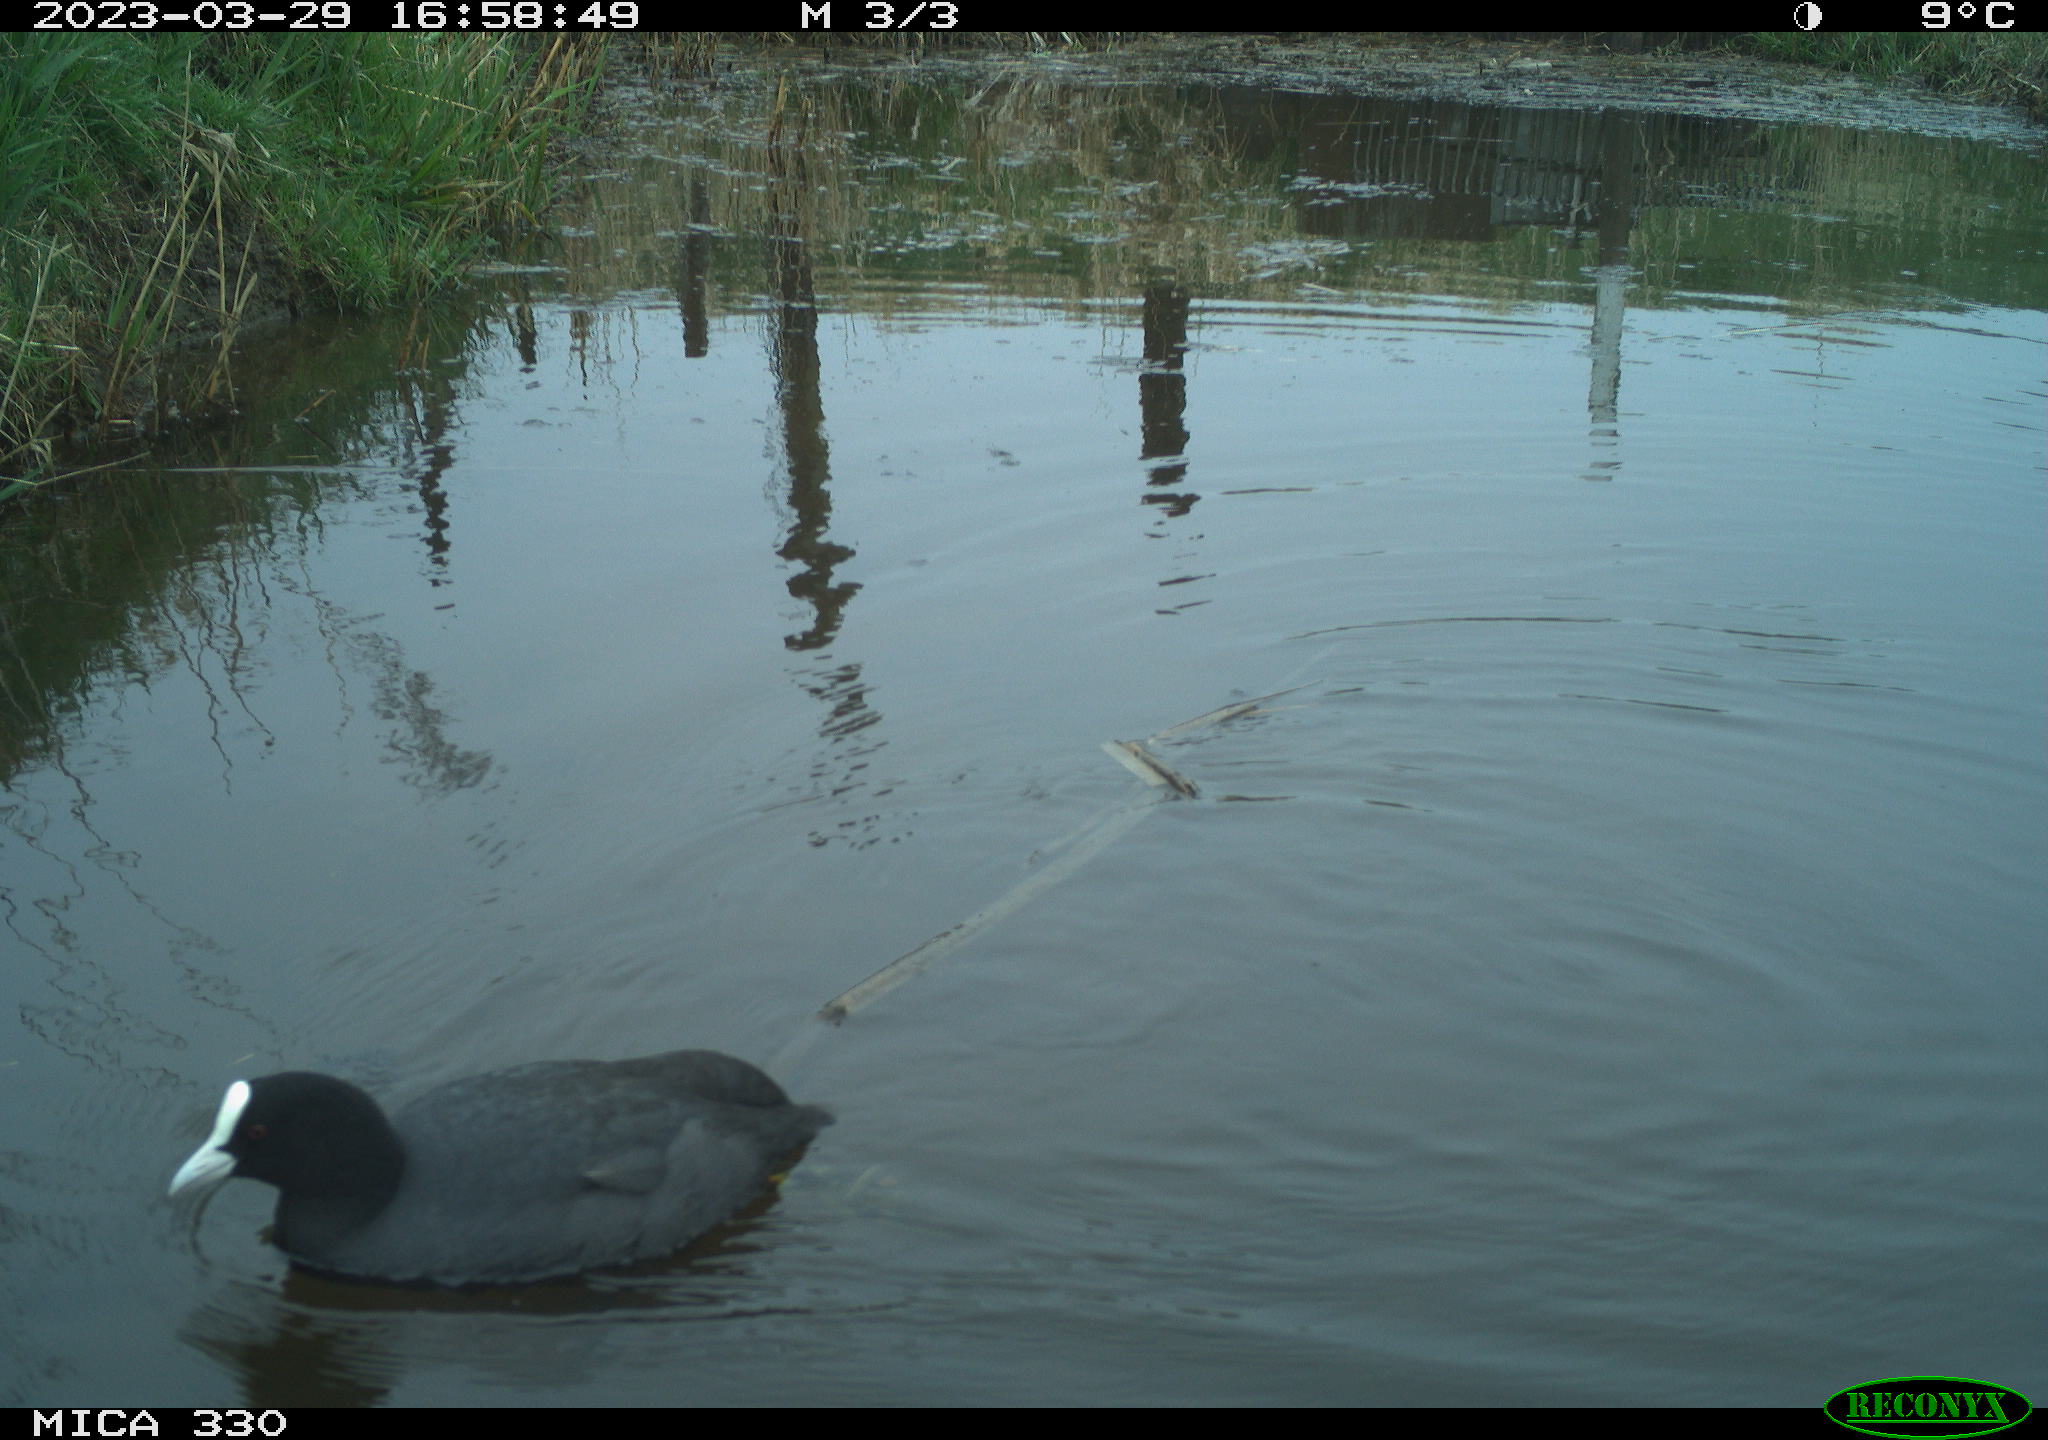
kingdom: Animalia
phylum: Chordata
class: Aves
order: Gruiformes
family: Rallidae
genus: Fulica
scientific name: Fulica atra
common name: Eurasian coot
